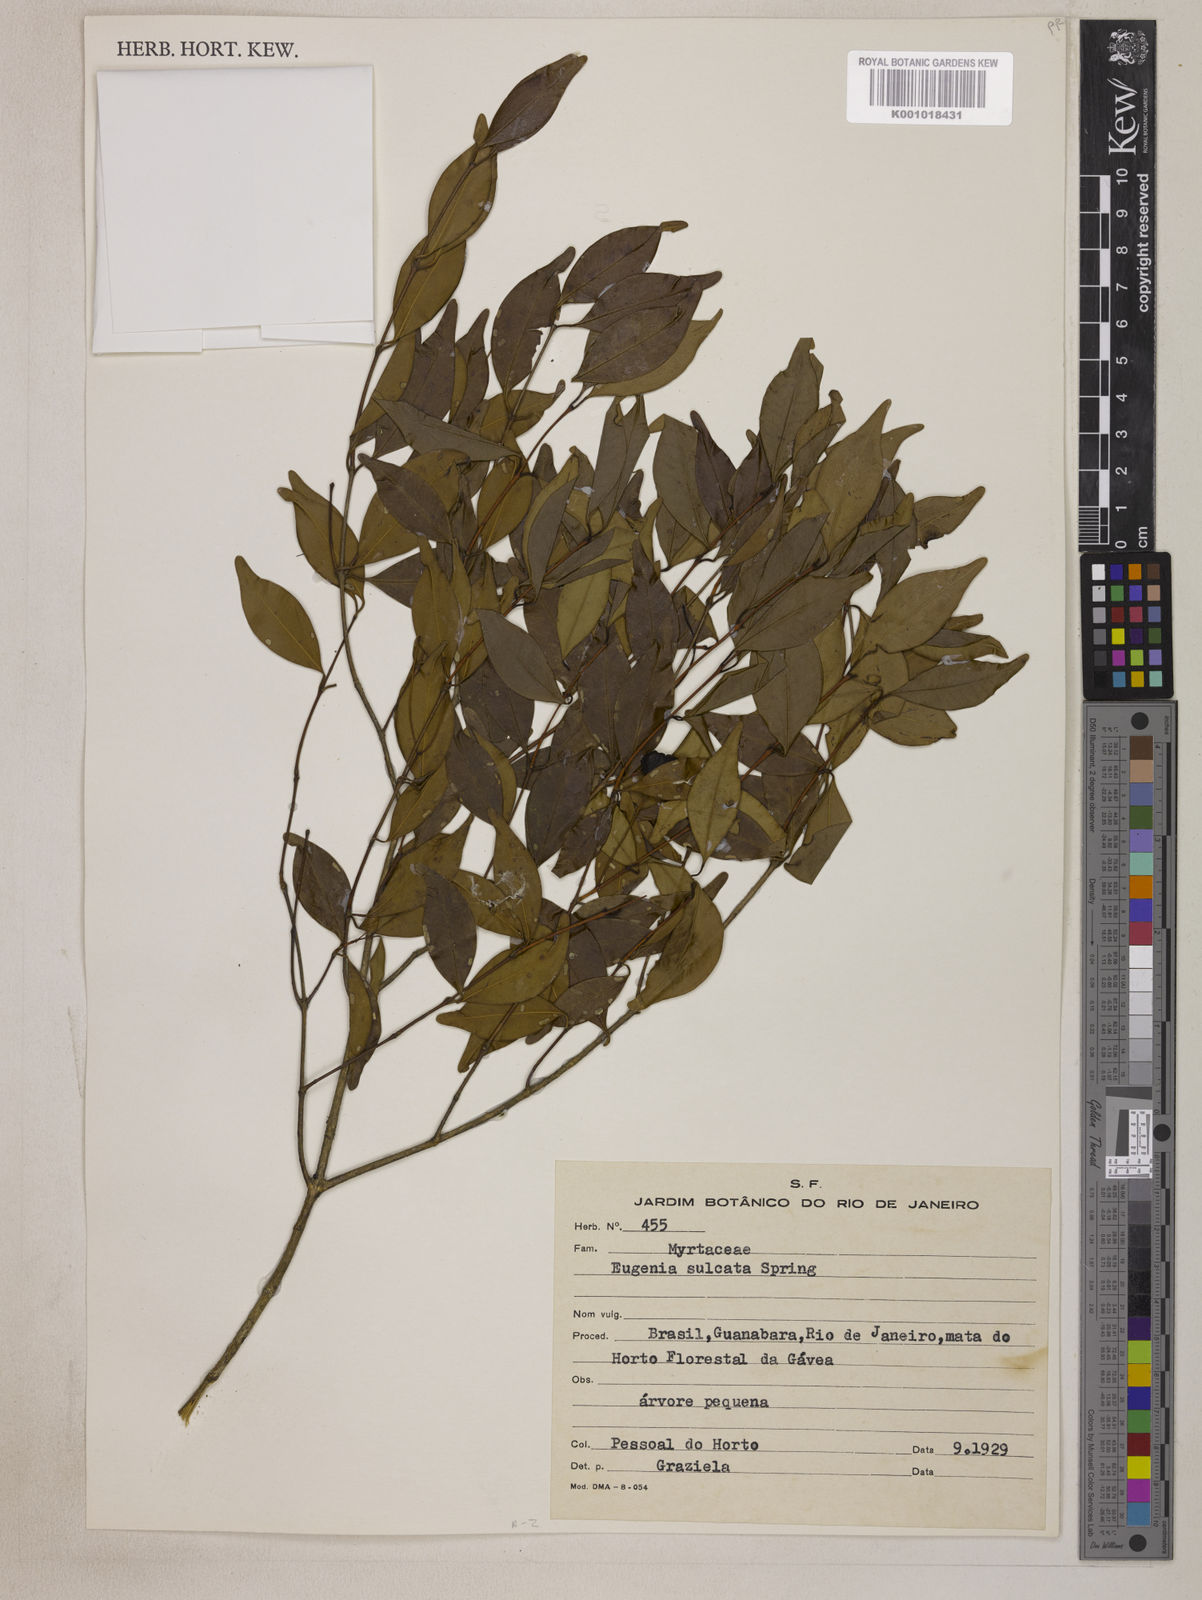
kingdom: Plantae
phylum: Tracheophyta
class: Magnoliopsida
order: Myrtales
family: Myrtaceae
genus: Eugenia
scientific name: Eugenia sulcata
